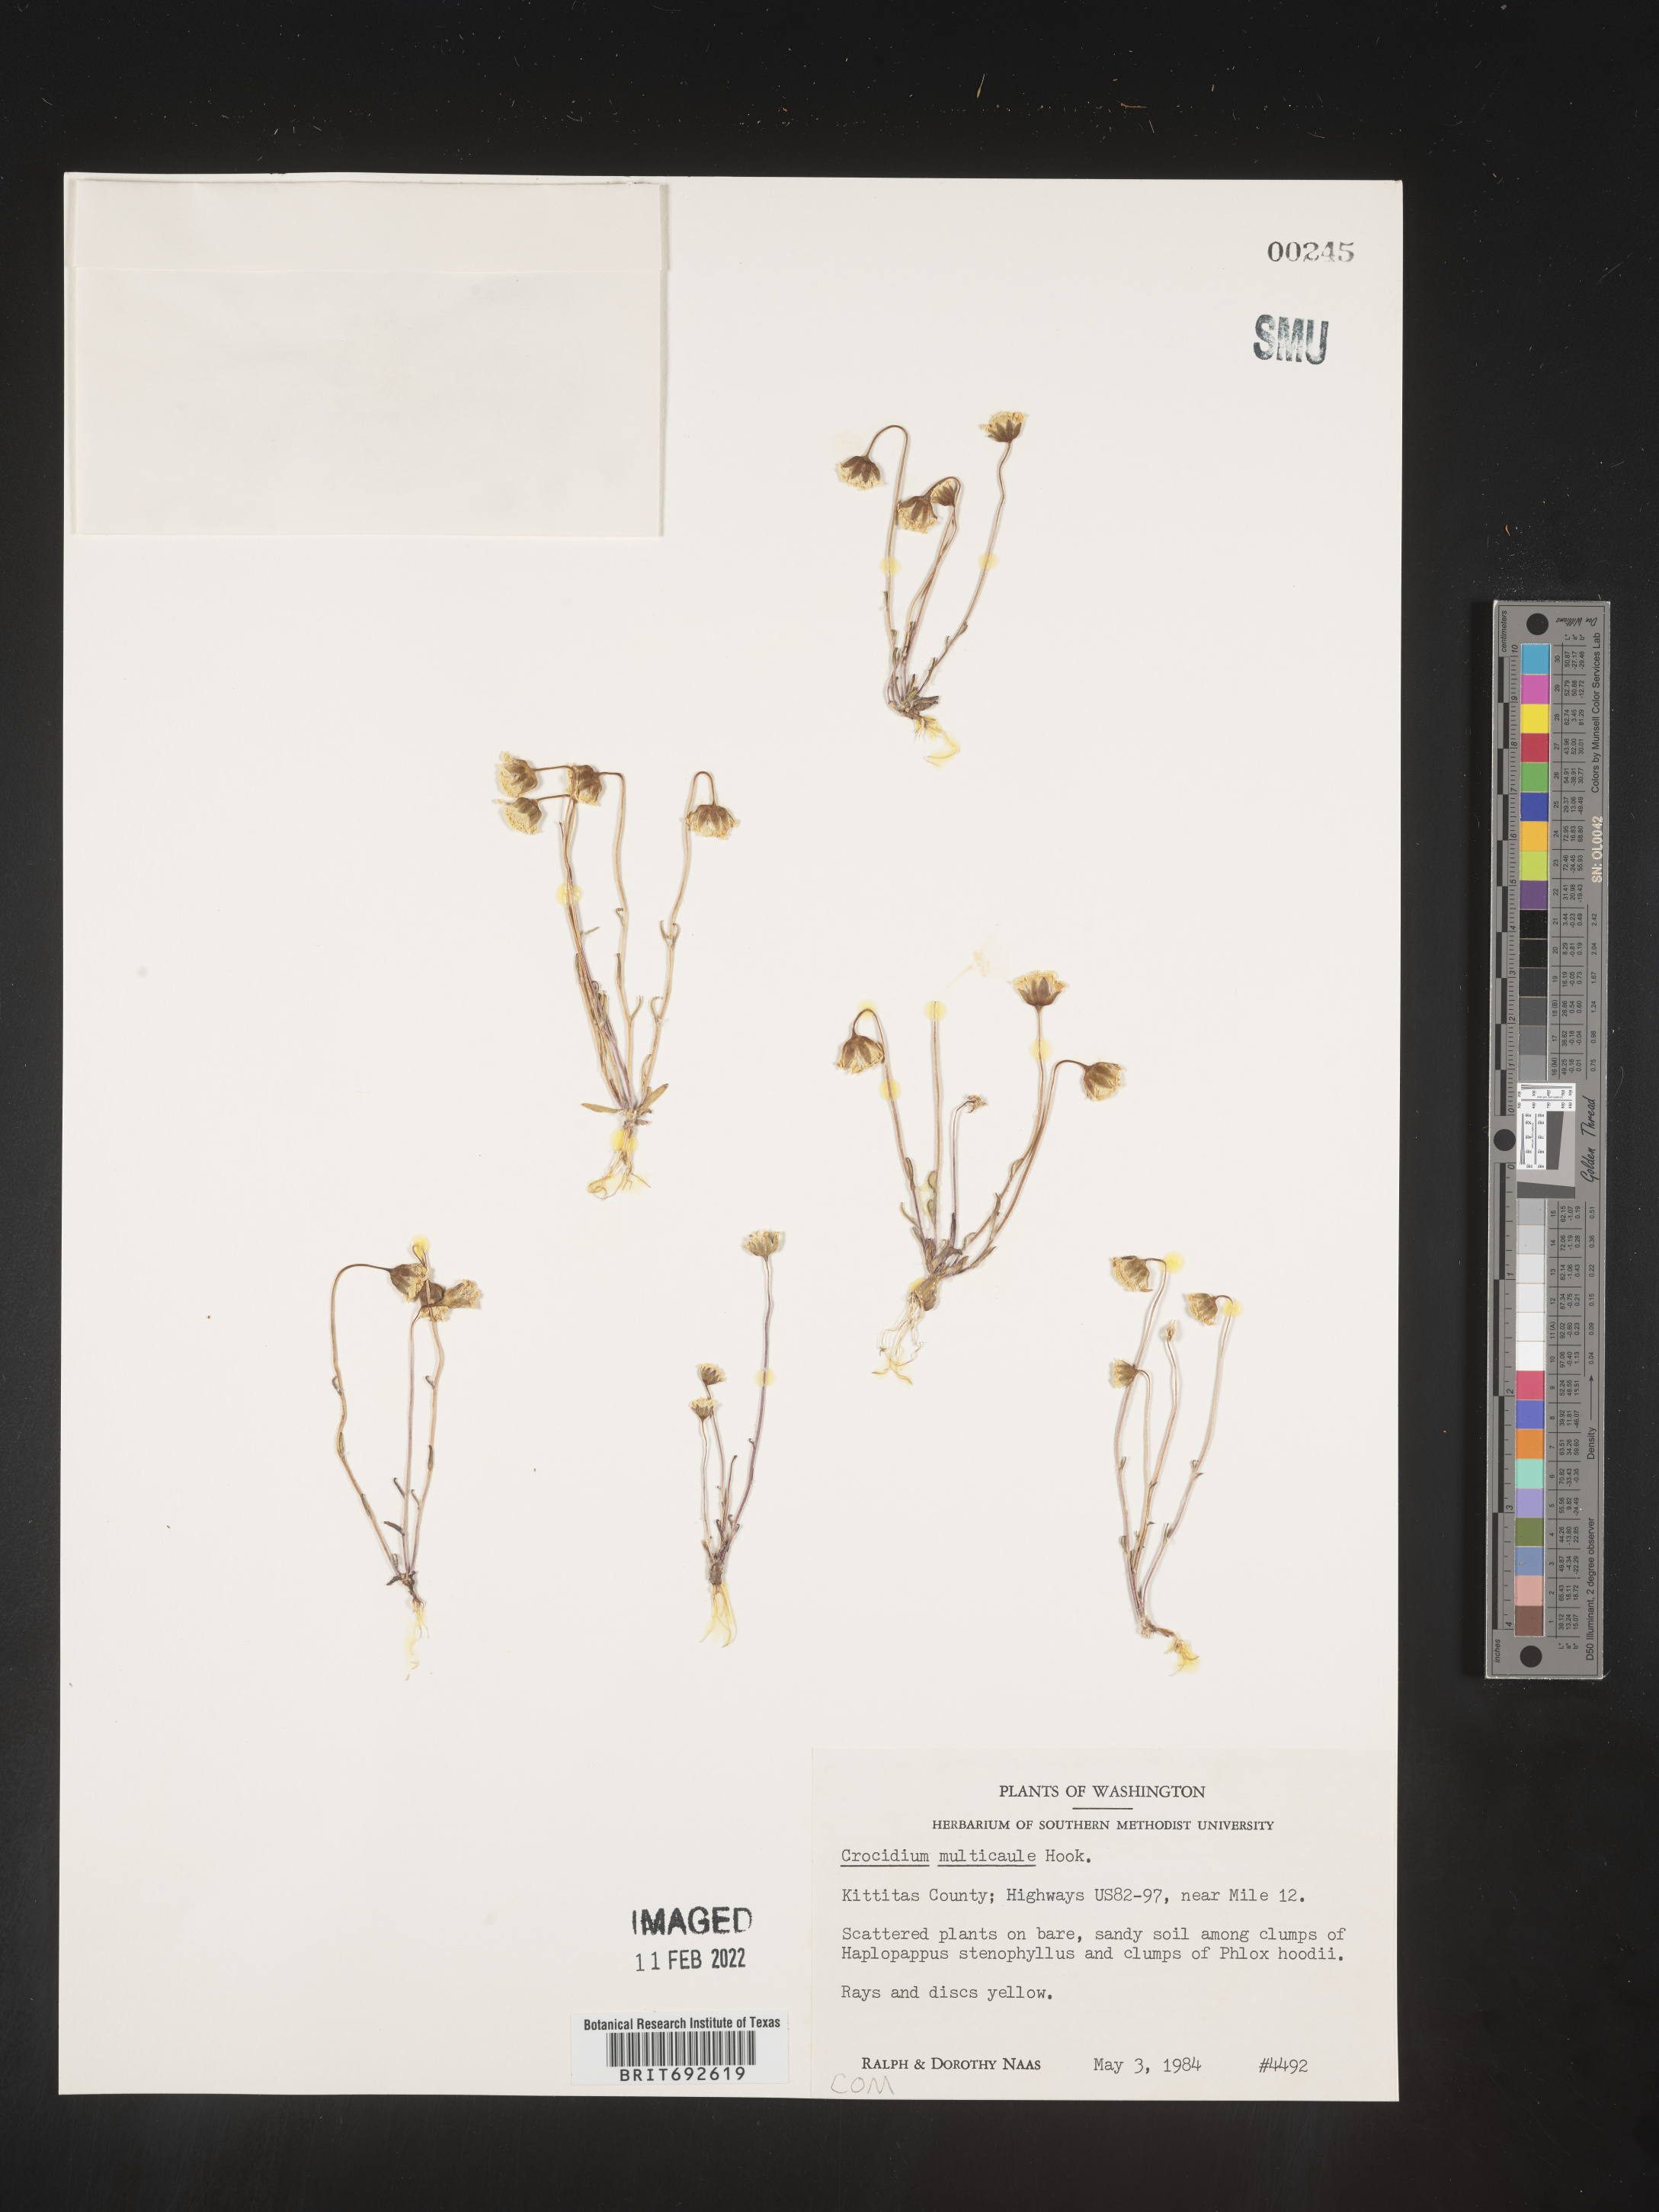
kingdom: Plantae
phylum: Tracheophyta
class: Magnoliopsida
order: Asterales
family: Asteraceae
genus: Crocidium
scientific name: Crocidium
